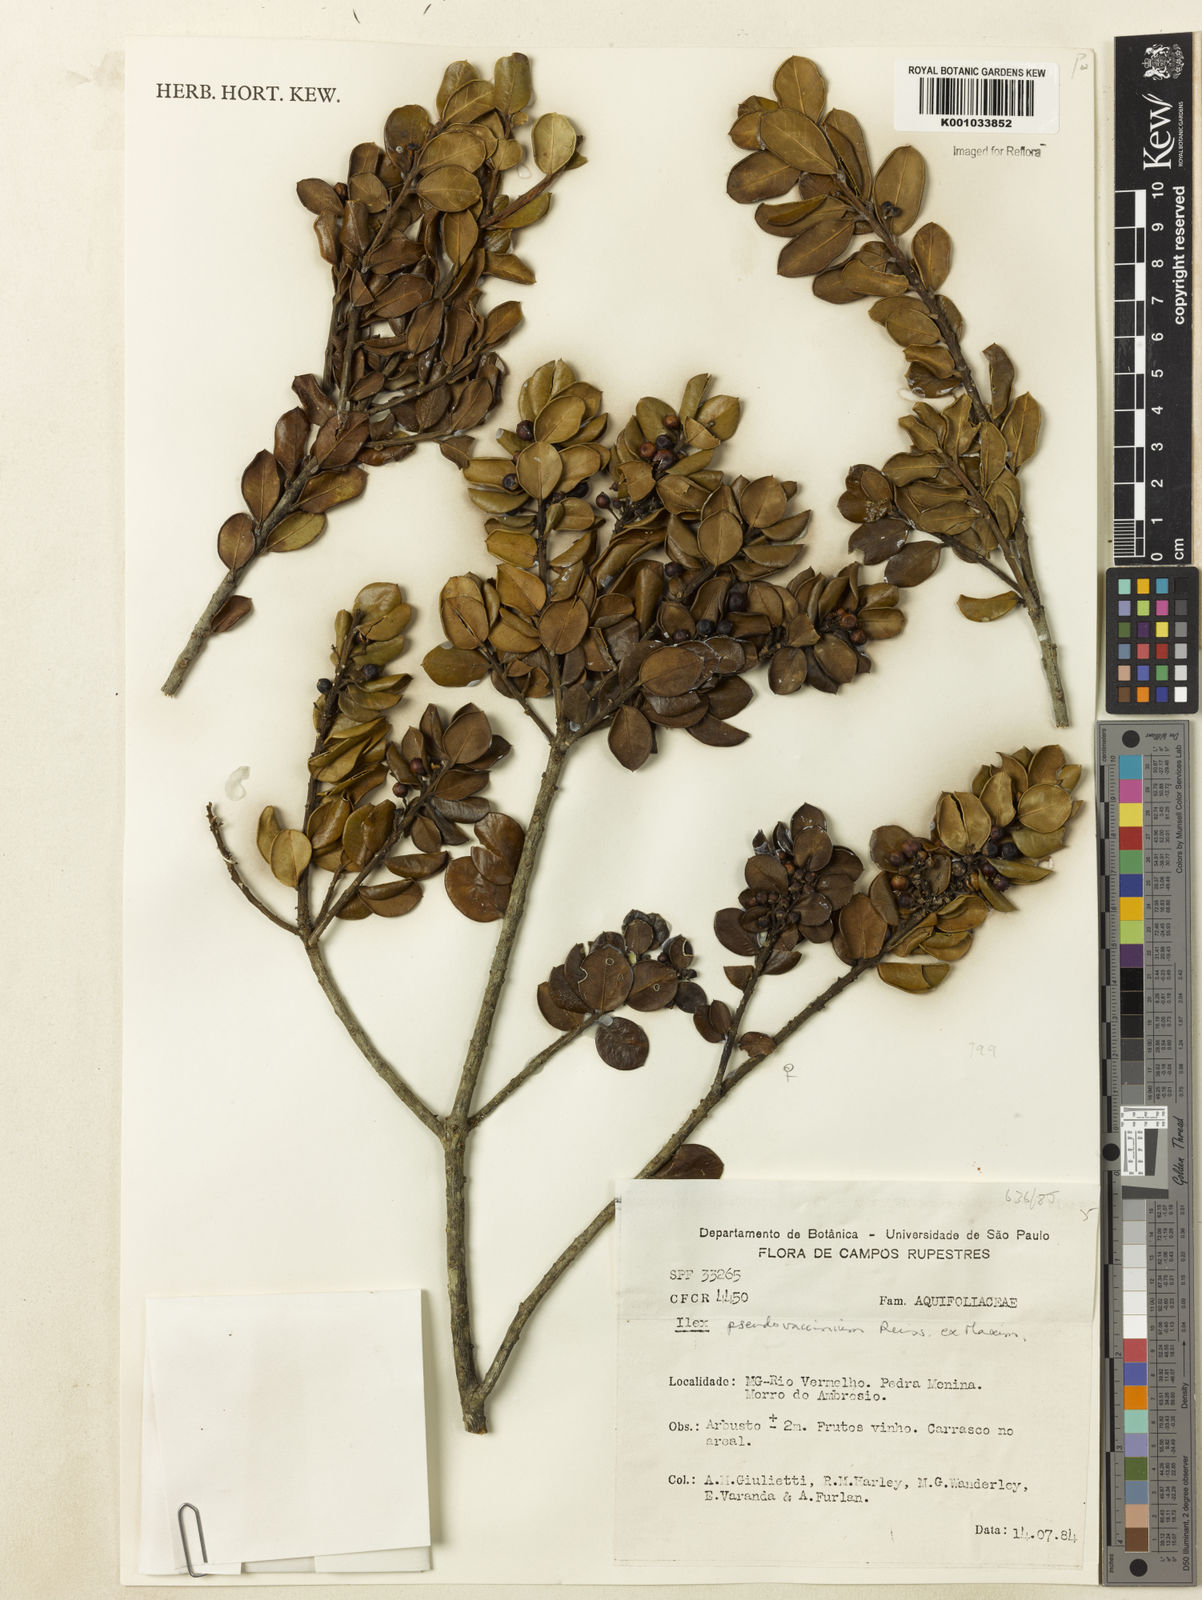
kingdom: Plantae
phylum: Tracheophyta
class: Magnoliopsida
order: Aquifoliales
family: Aquifoliaceae
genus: Ilex
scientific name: Ilex pseudovaccinium
